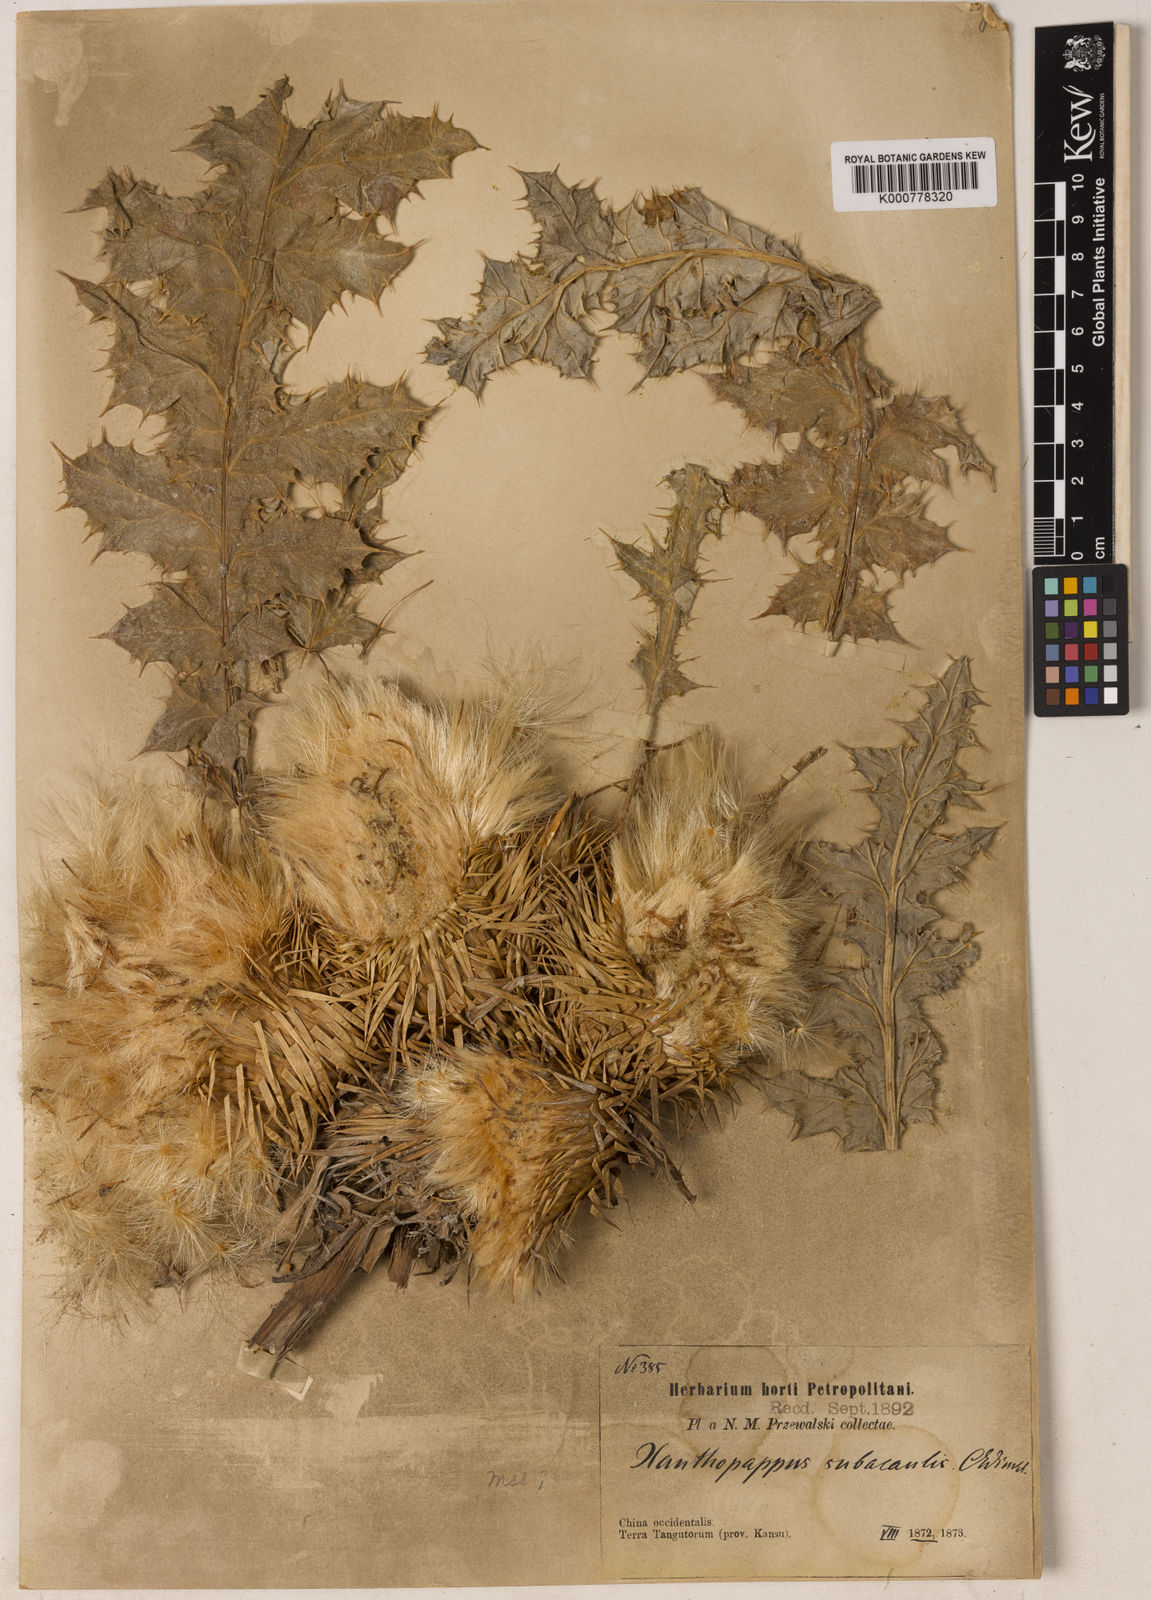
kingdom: Plantae
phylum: Tracheophyta
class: Magnoliopsida
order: Asterales
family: Asteraceae
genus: Alfredia
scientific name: Alfredia
